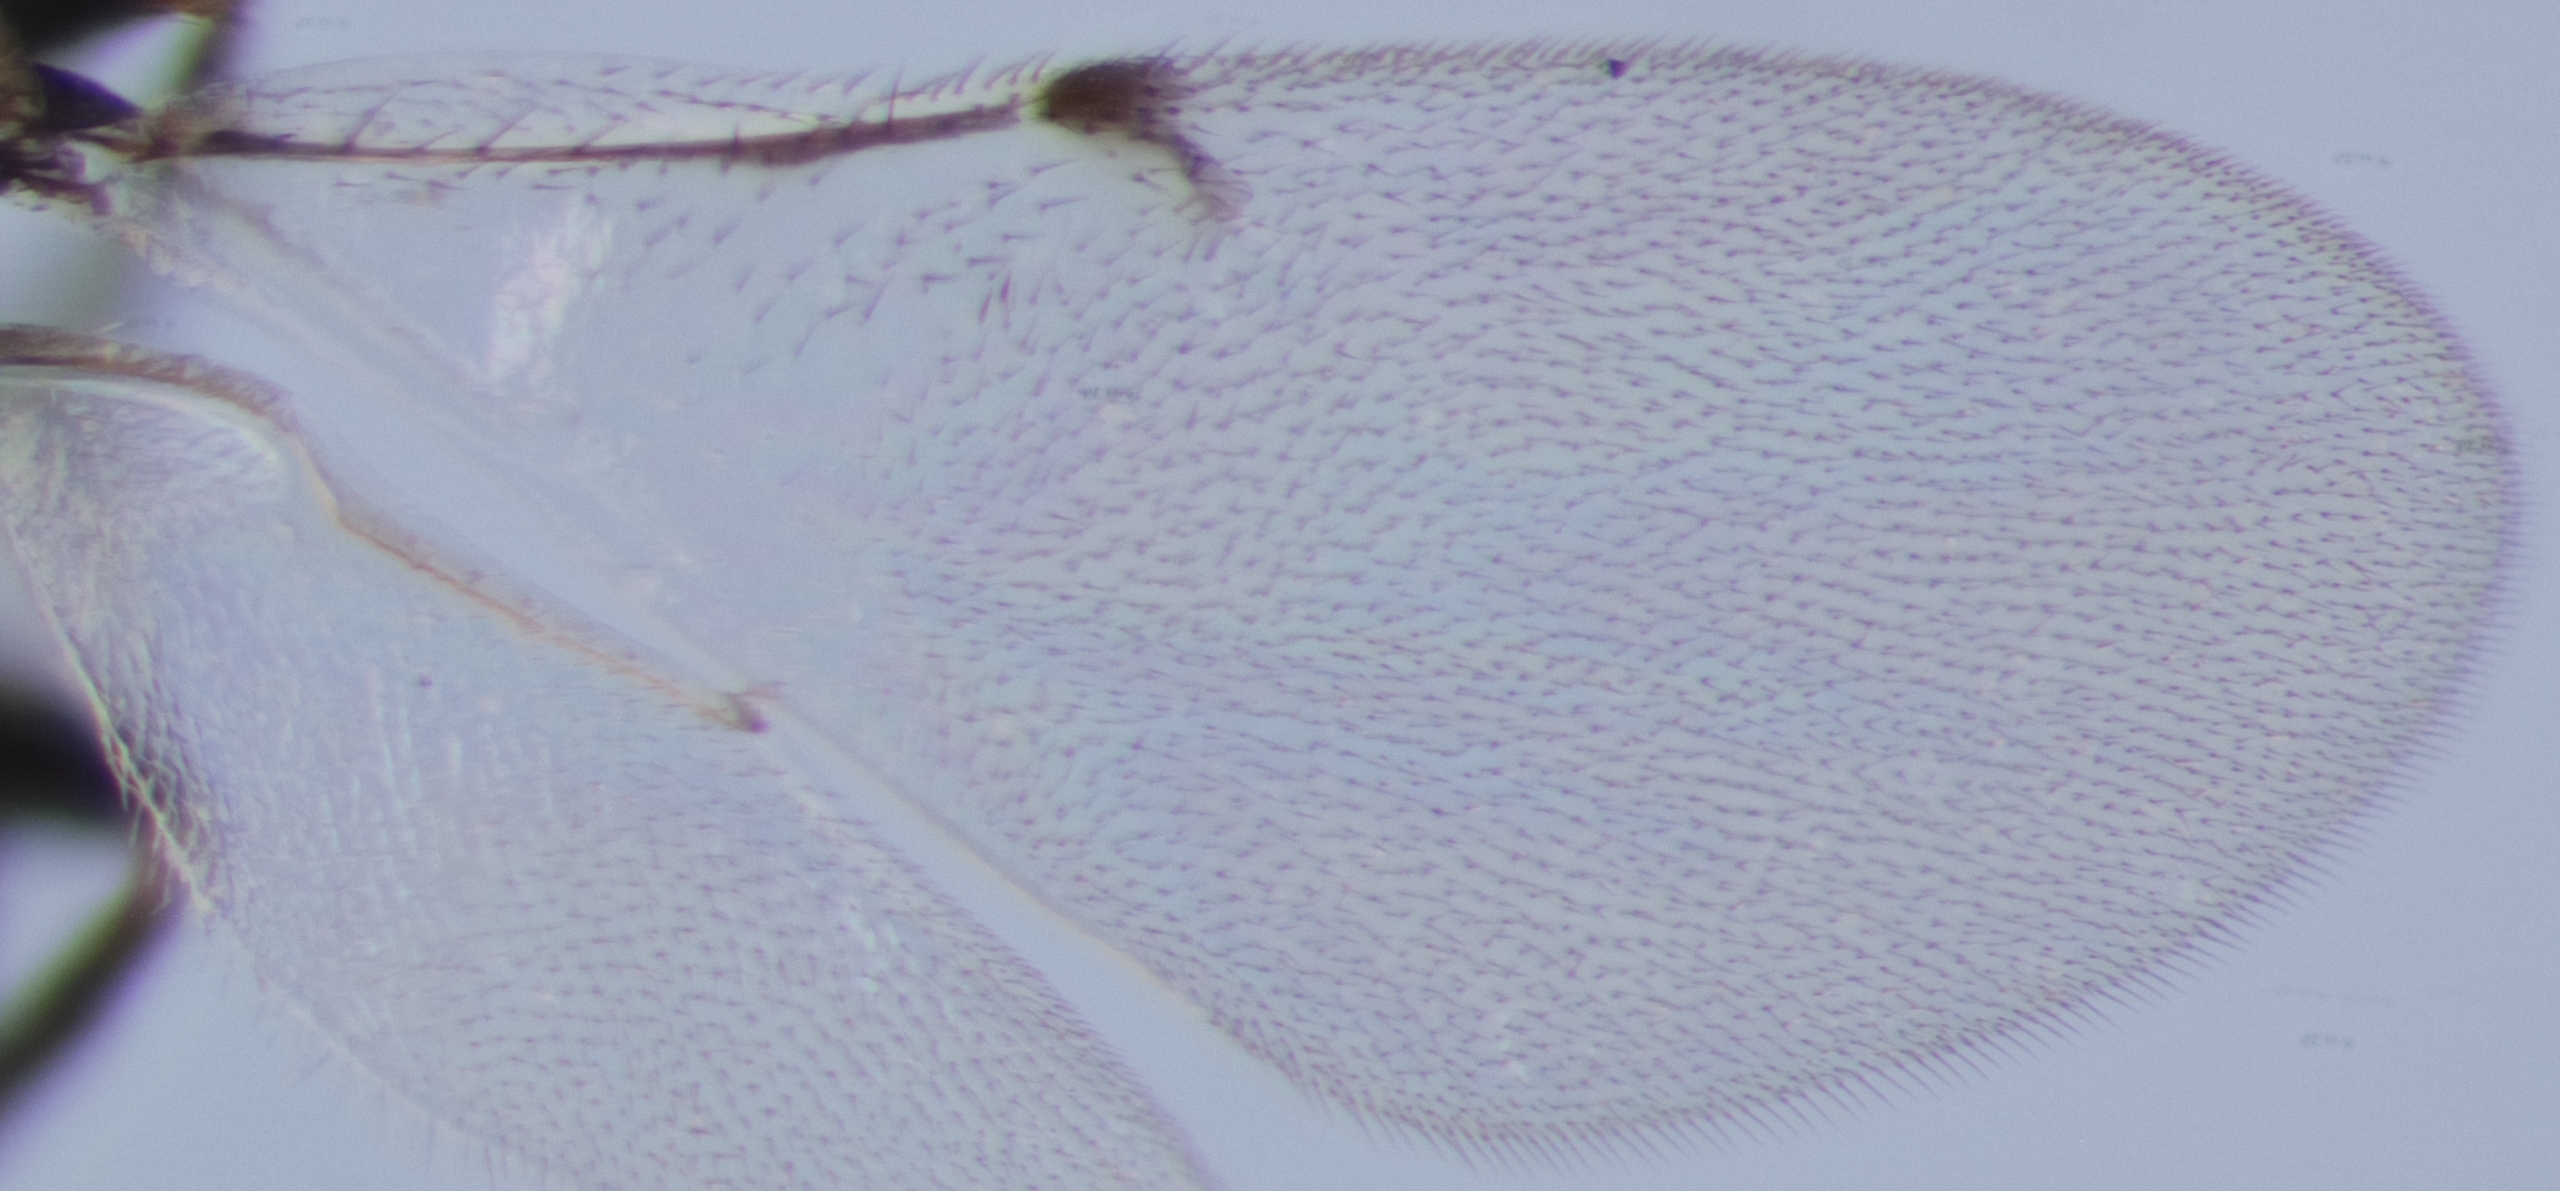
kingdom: Animalia
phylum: Arthropoda
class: Insecta
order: Hymenoptera
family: Encyrtidae
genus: Copidosoma
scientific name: Copidosoma truncatellum
